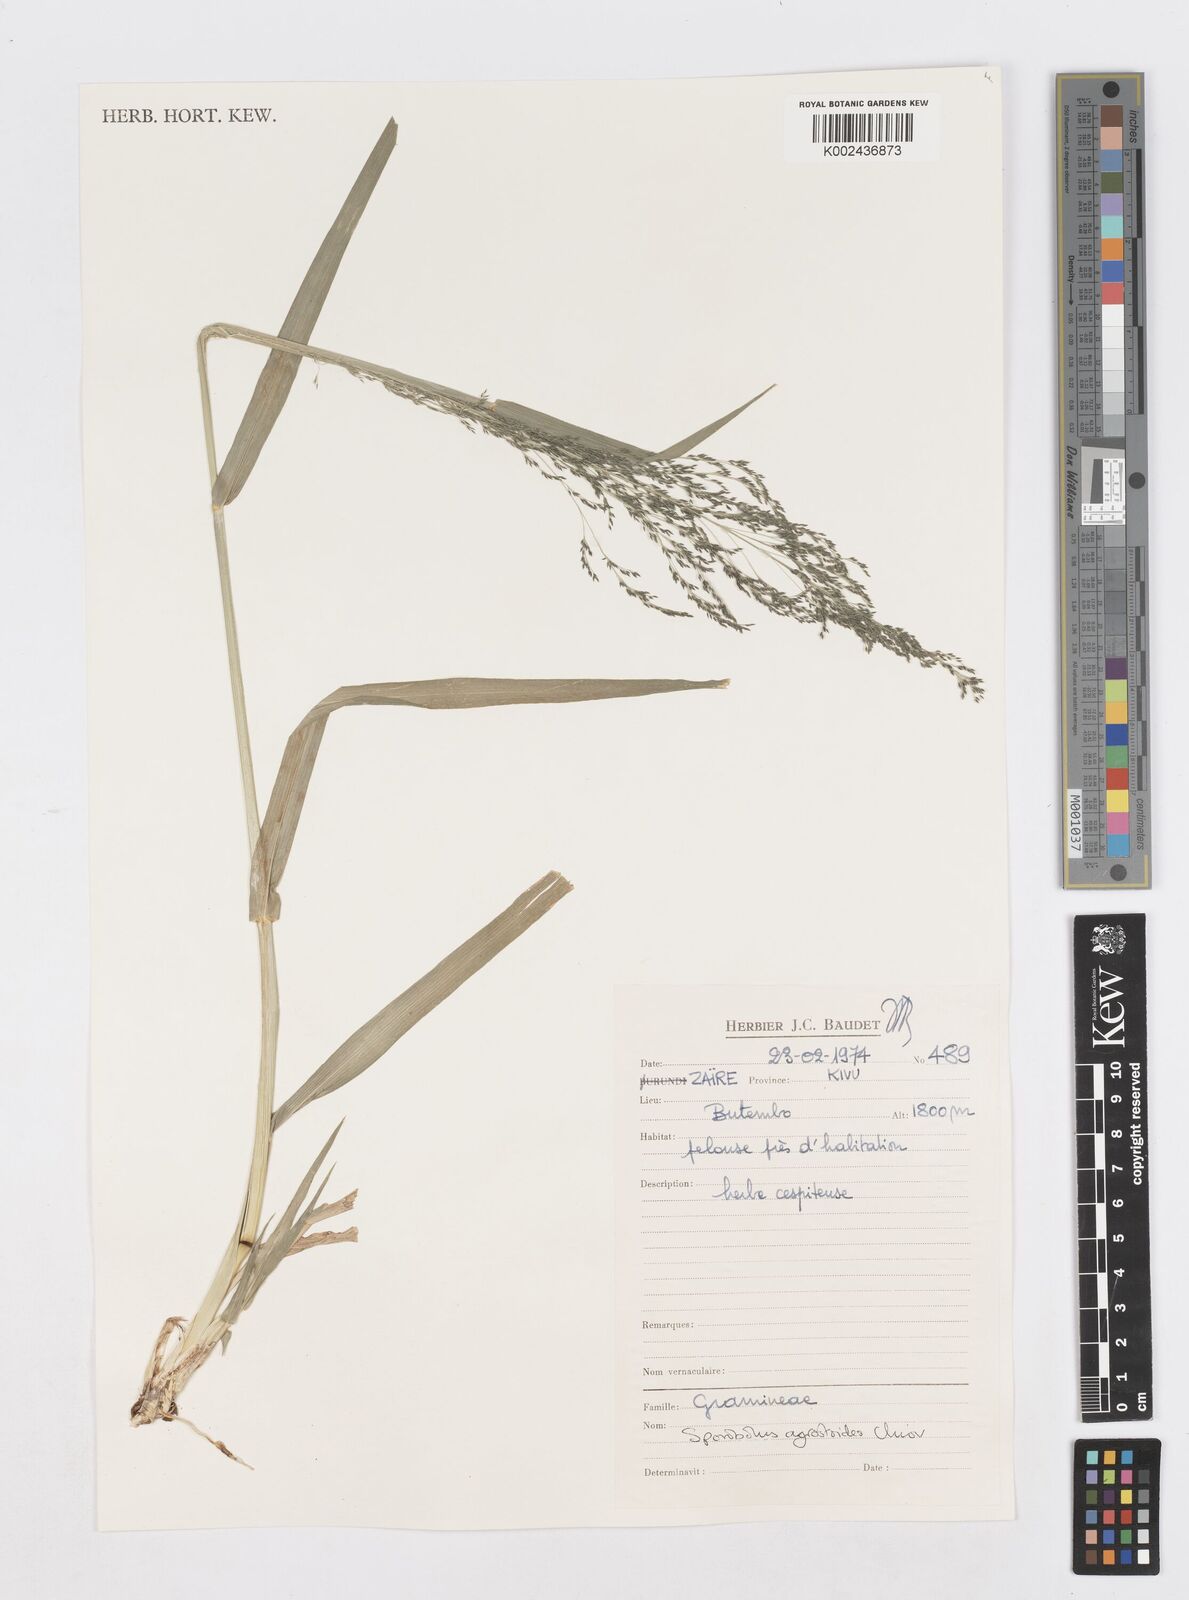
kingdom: Plantae
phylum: Tracheophyta
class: Liliopsida
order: Poales
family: Poaceae
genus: Sporobolus
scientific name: Sporobolus agrostoides
